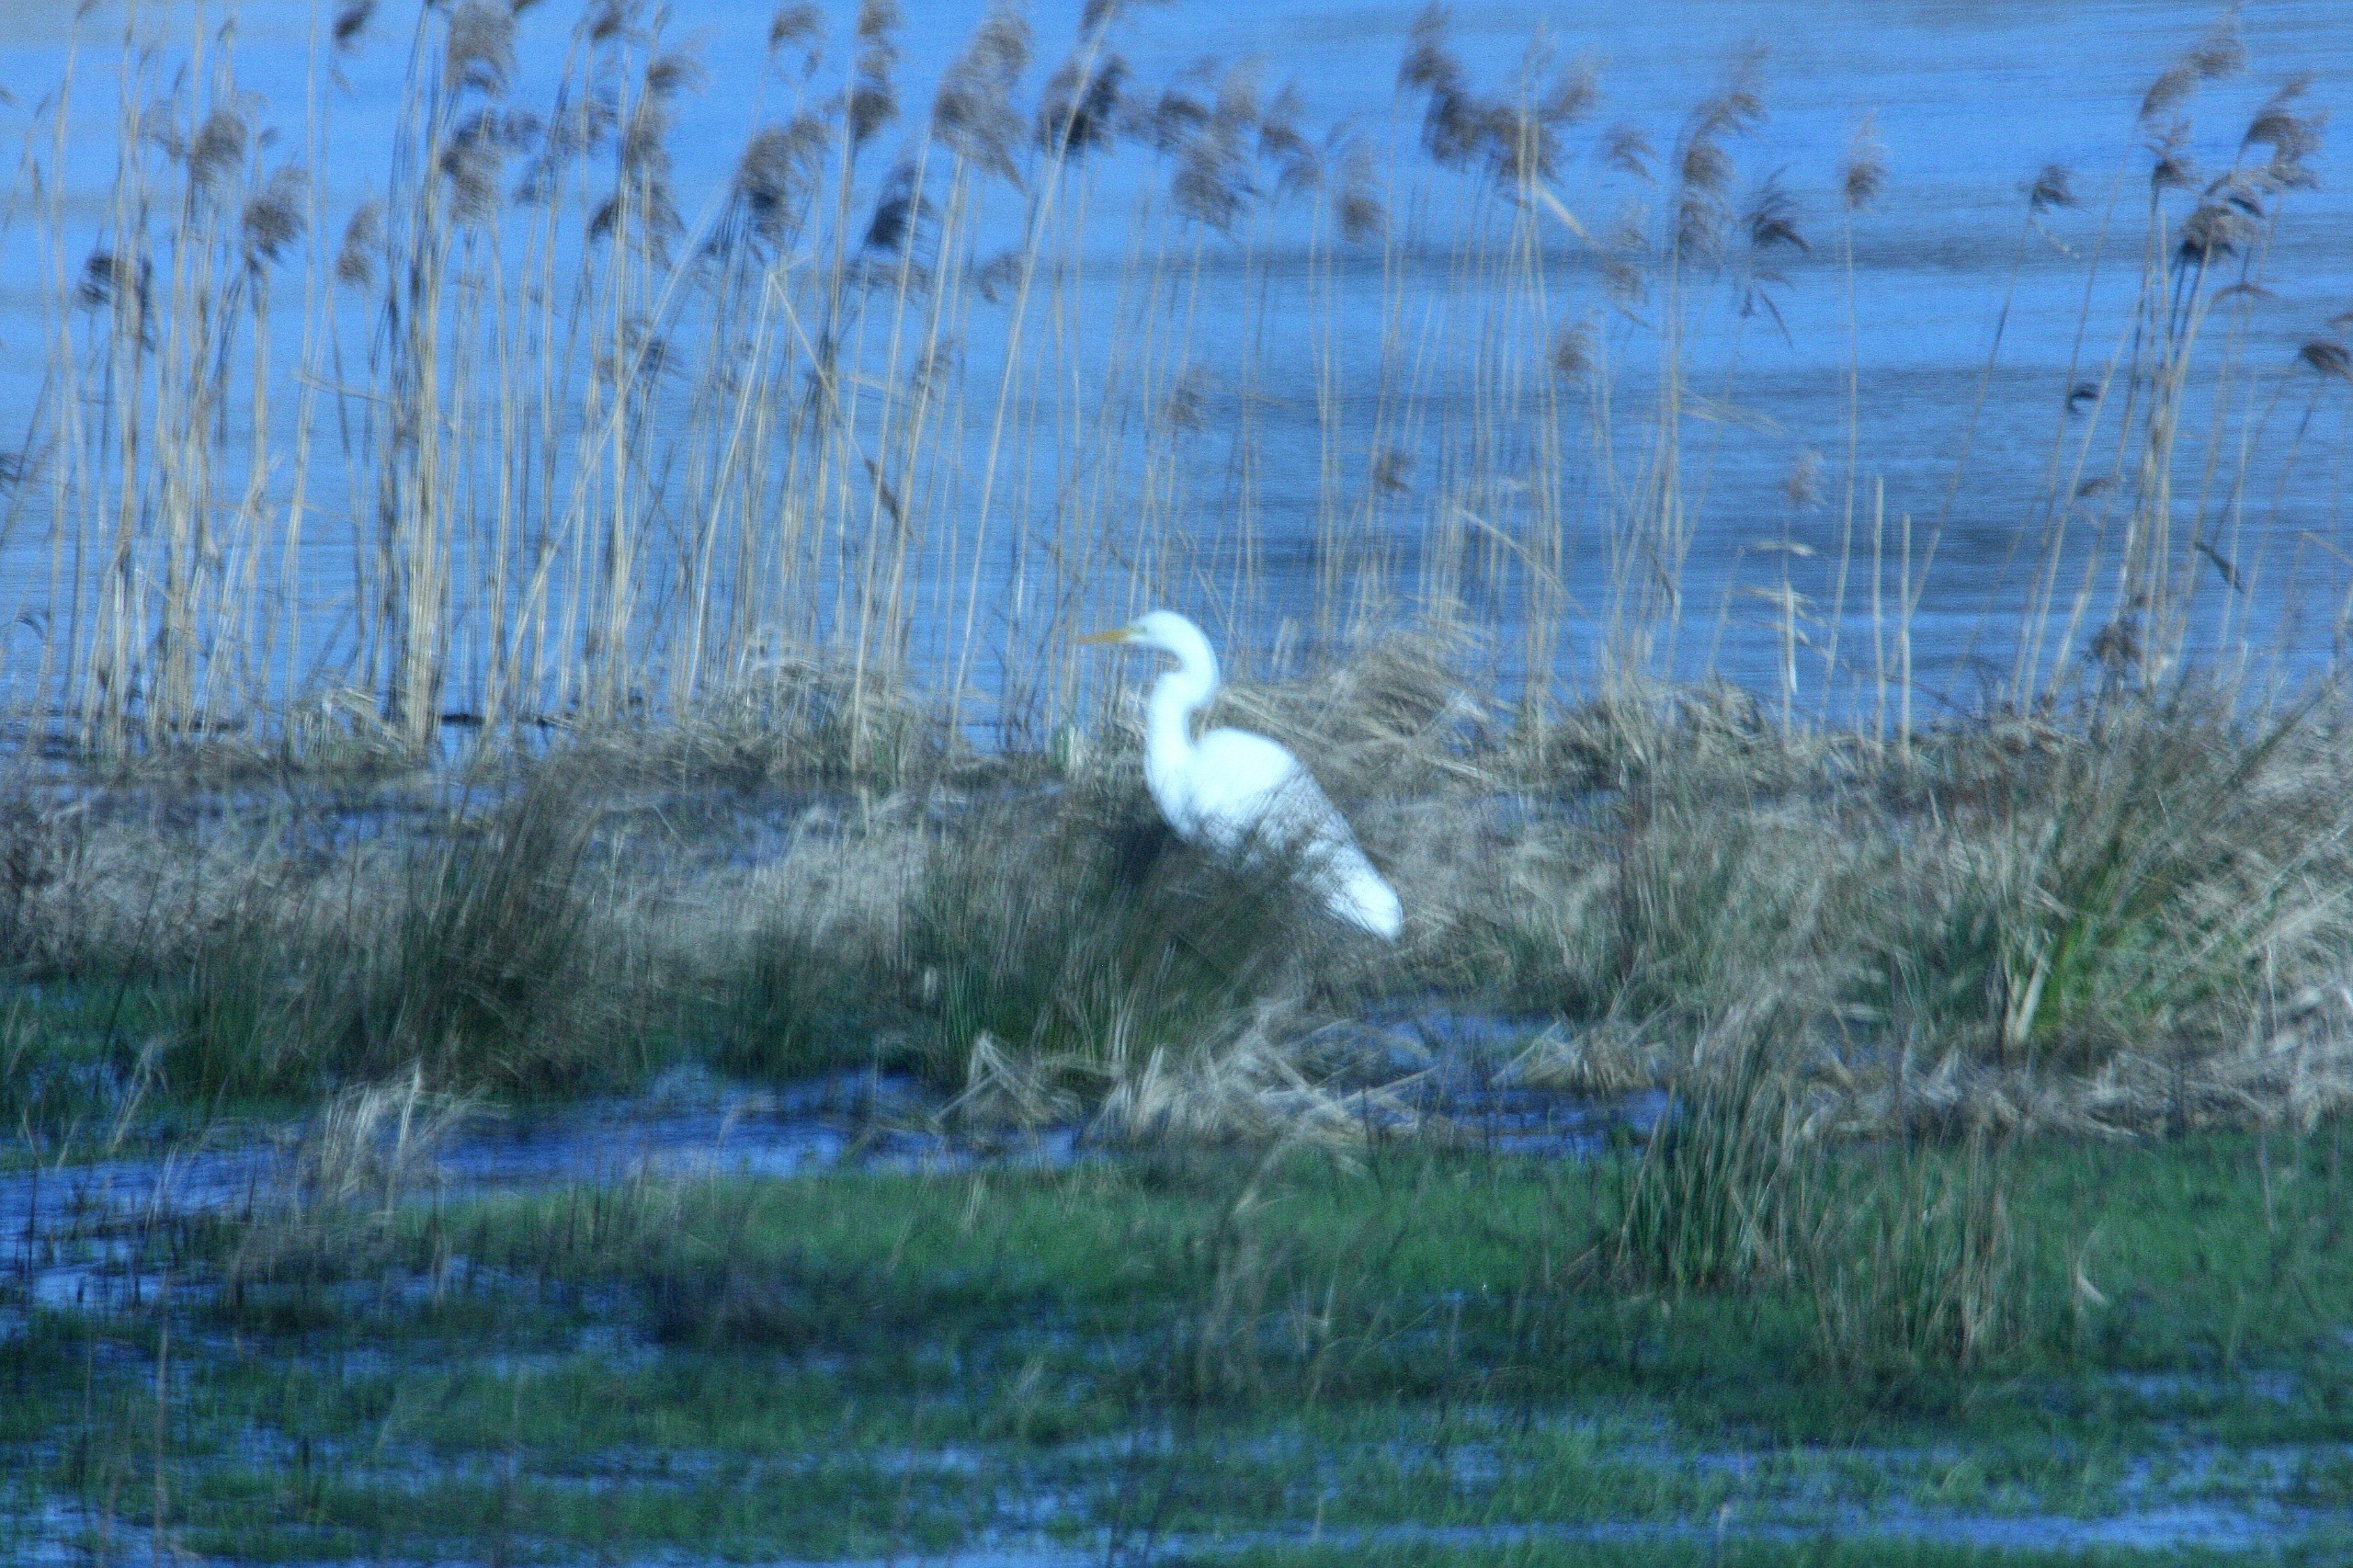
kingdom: Animalia
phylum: Chordata
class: Aves
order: Pelecaniformes
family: Ardeidae
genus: Ardea
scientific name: Ardea alba
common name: Sølvhejre
